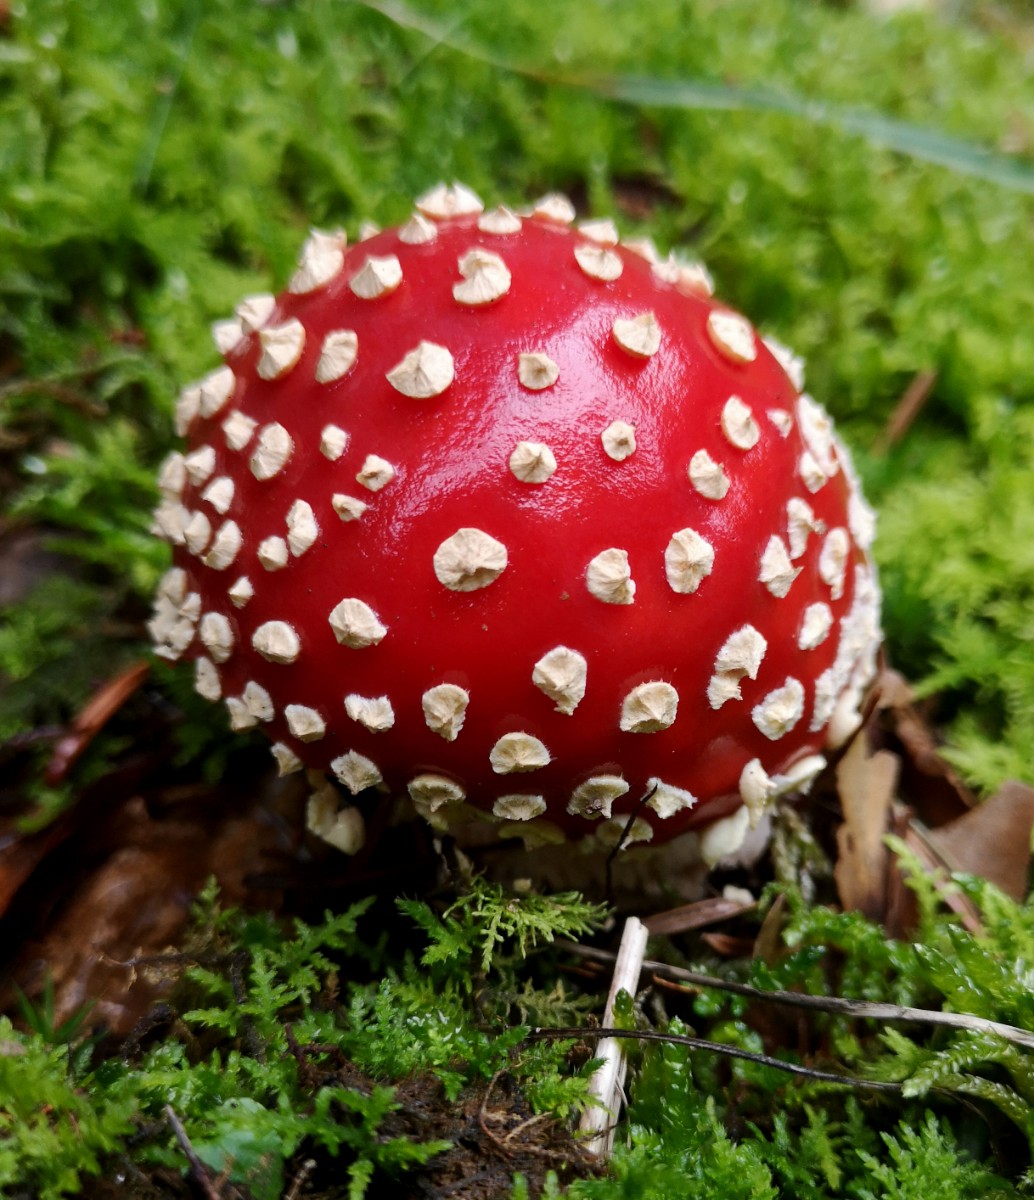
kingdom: Fungi
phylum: Basidiomycota
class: Agaricomycetes
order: Agaricales
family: Amanitaceae
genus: Amanita
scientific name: Amanita muscaria
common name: rød fluesvamp
